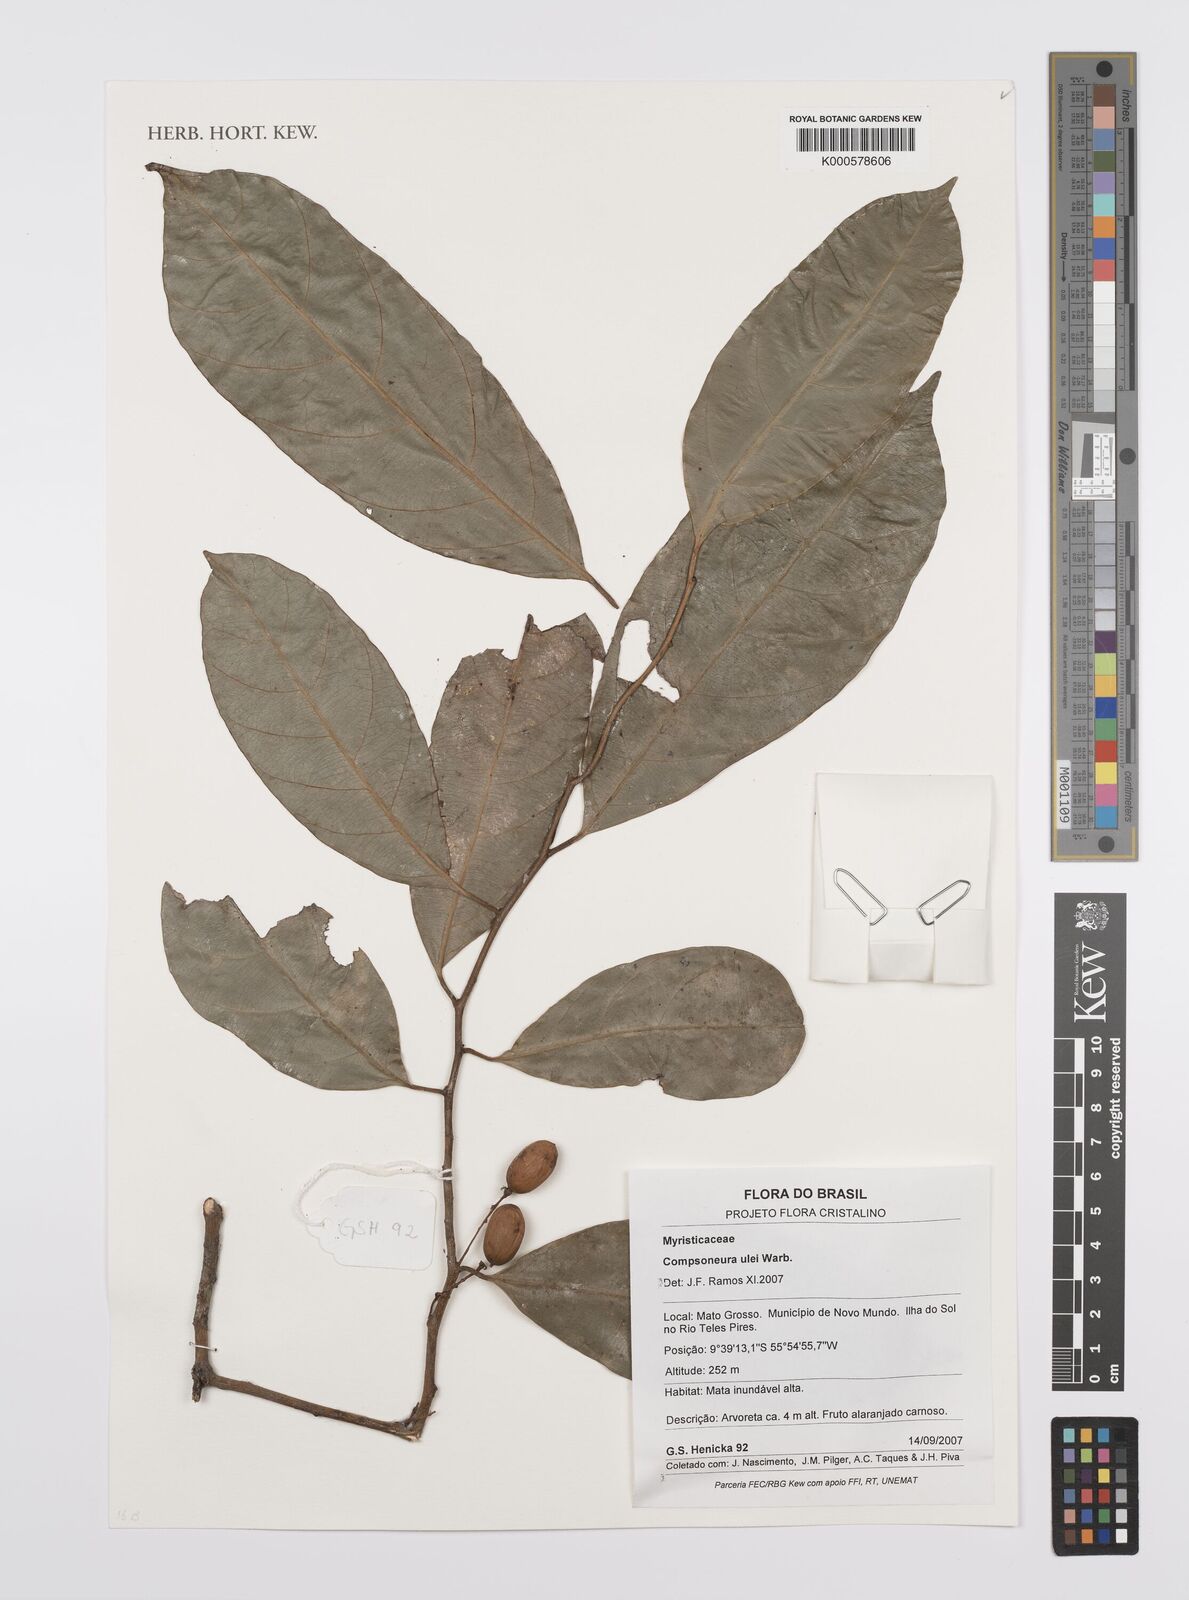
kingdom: Plantae
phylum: Tracheophyta
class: Magnoliopsida
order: Magnoliales
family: Myristicaceae
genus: Compsoneura
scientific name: Compsoneura ulei
